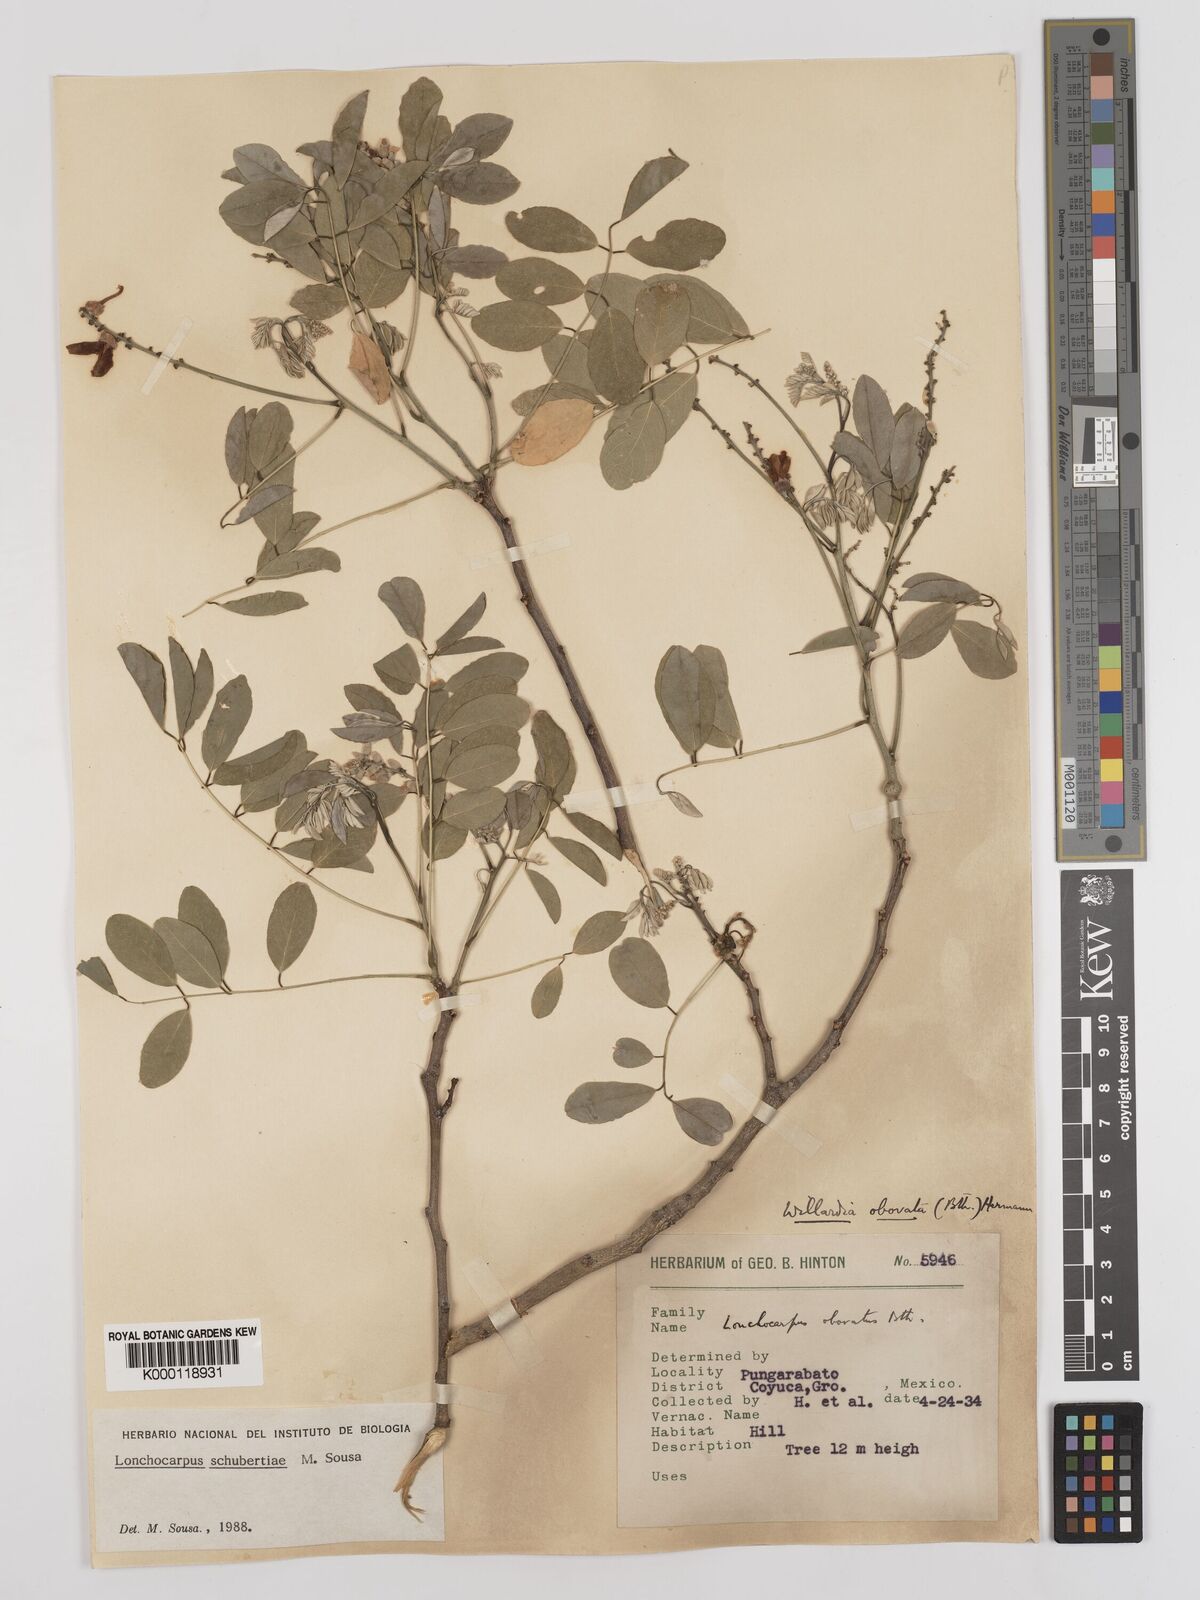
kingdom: Plantae
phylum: Tracheophyta
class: Magnoliopsida
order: Fabales
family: Fabaceae
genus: Lonchocarpus
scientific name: Lonchocarpus schubertiae
